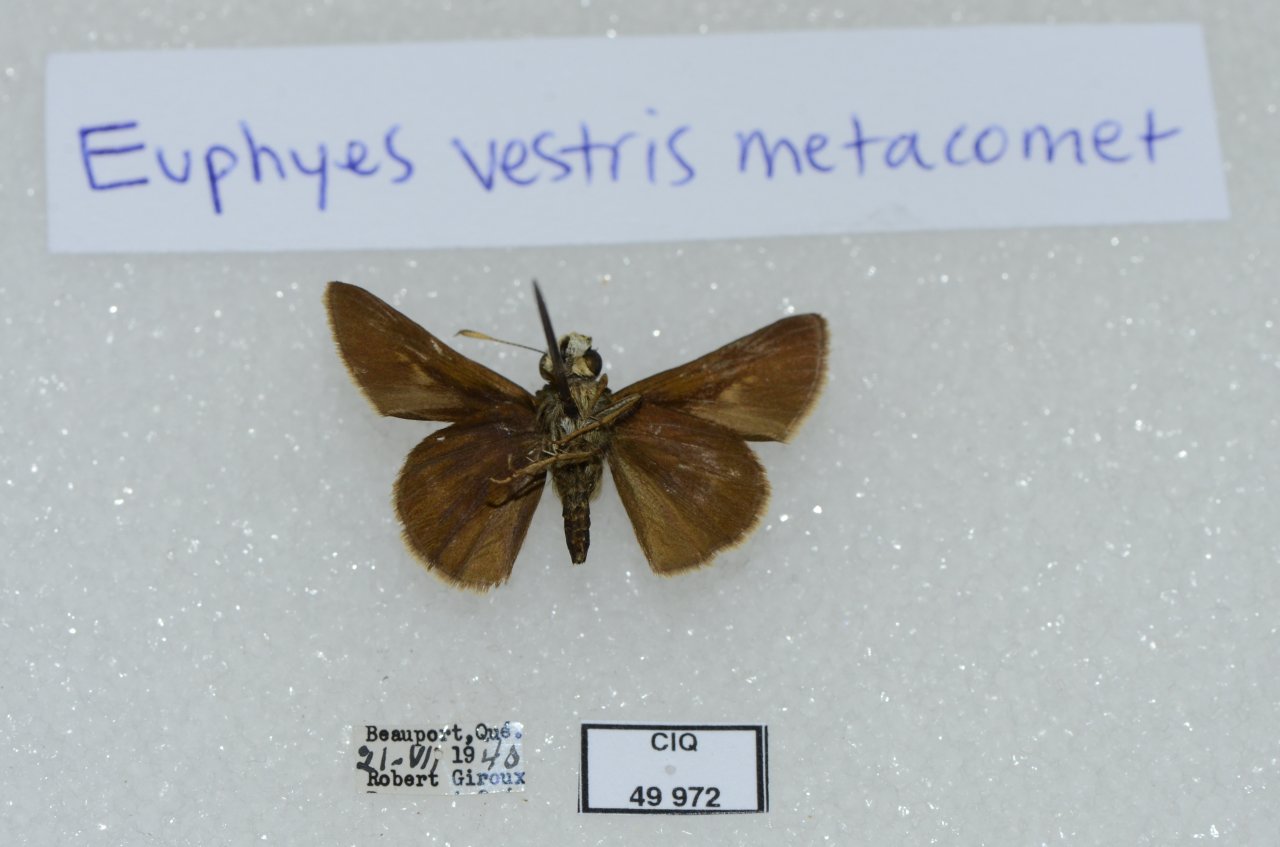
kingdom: Animalia
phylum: Arthropoda
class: Insecta
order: Lepidoptera
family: Hesperiidae
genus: Euphyes
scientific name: Euphyes vestris
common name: Dun Skipper
